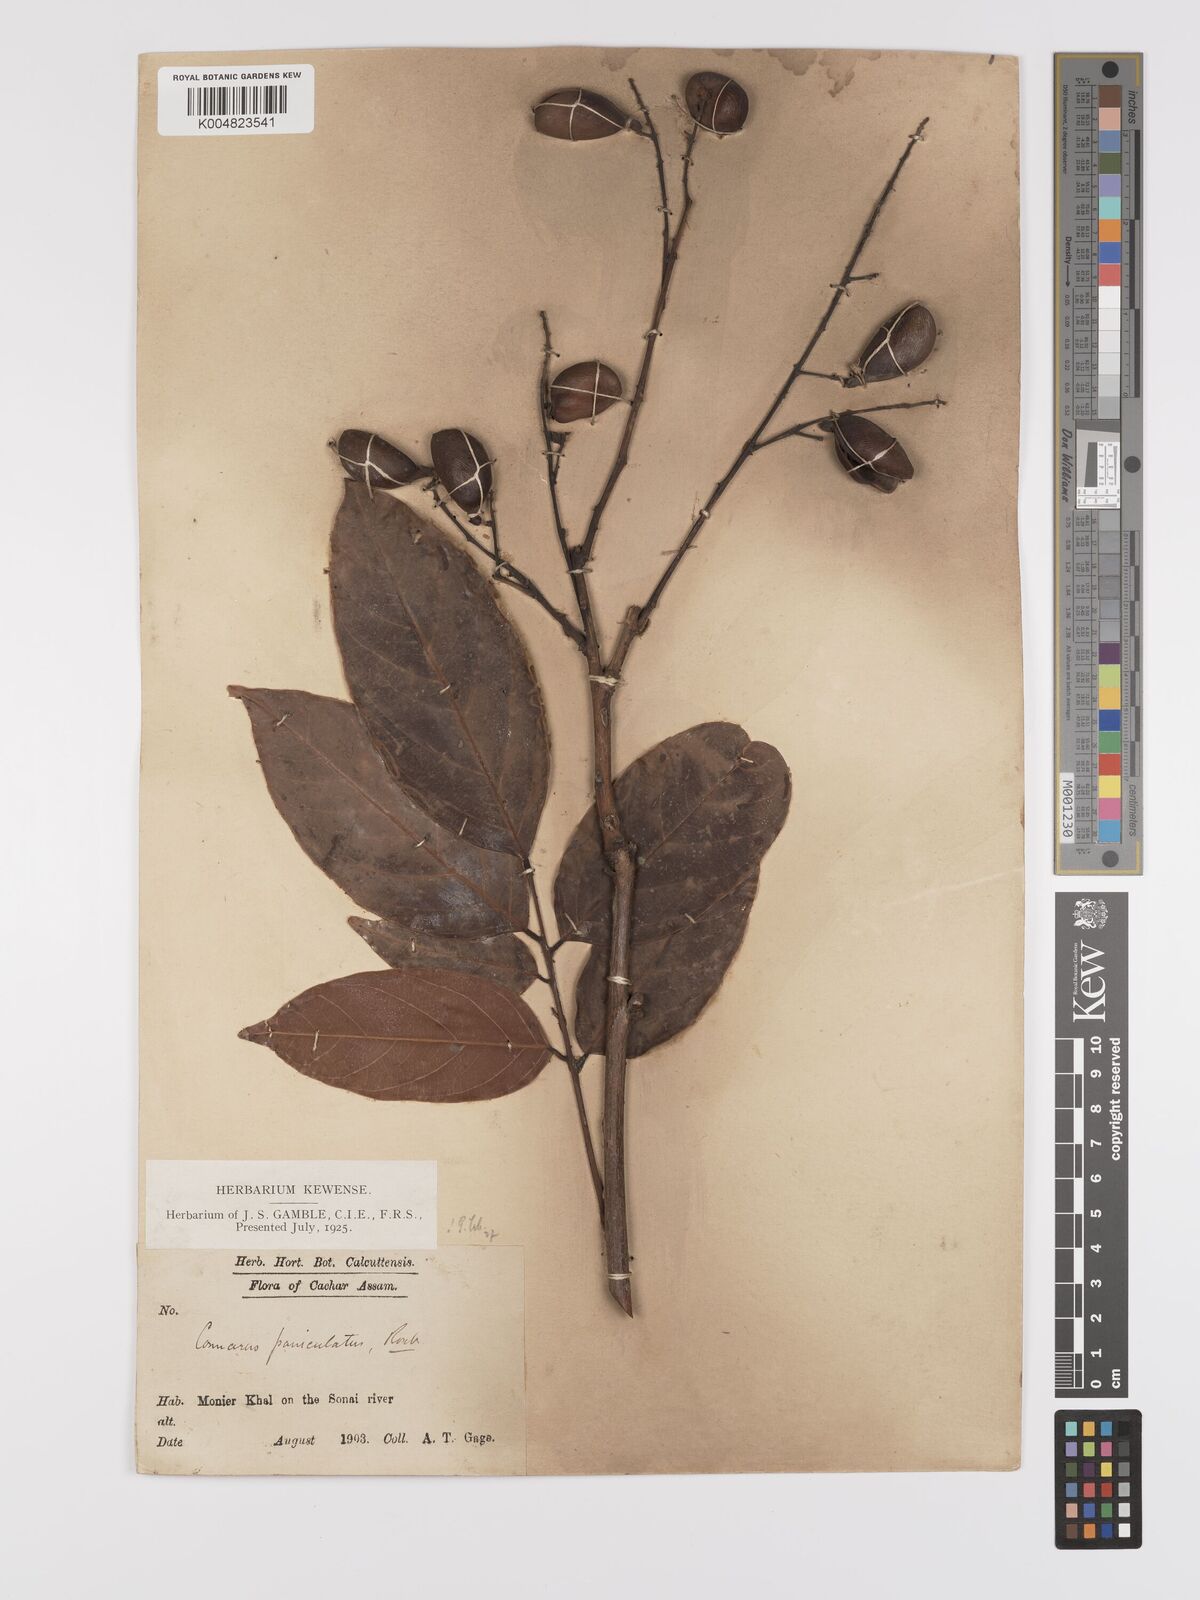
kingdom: Plantae
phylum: Tracheophyta
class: Magnoliopsida
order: Oxalidales
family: Connaraceae
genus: Connarus
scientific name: Connarus paniculatus
